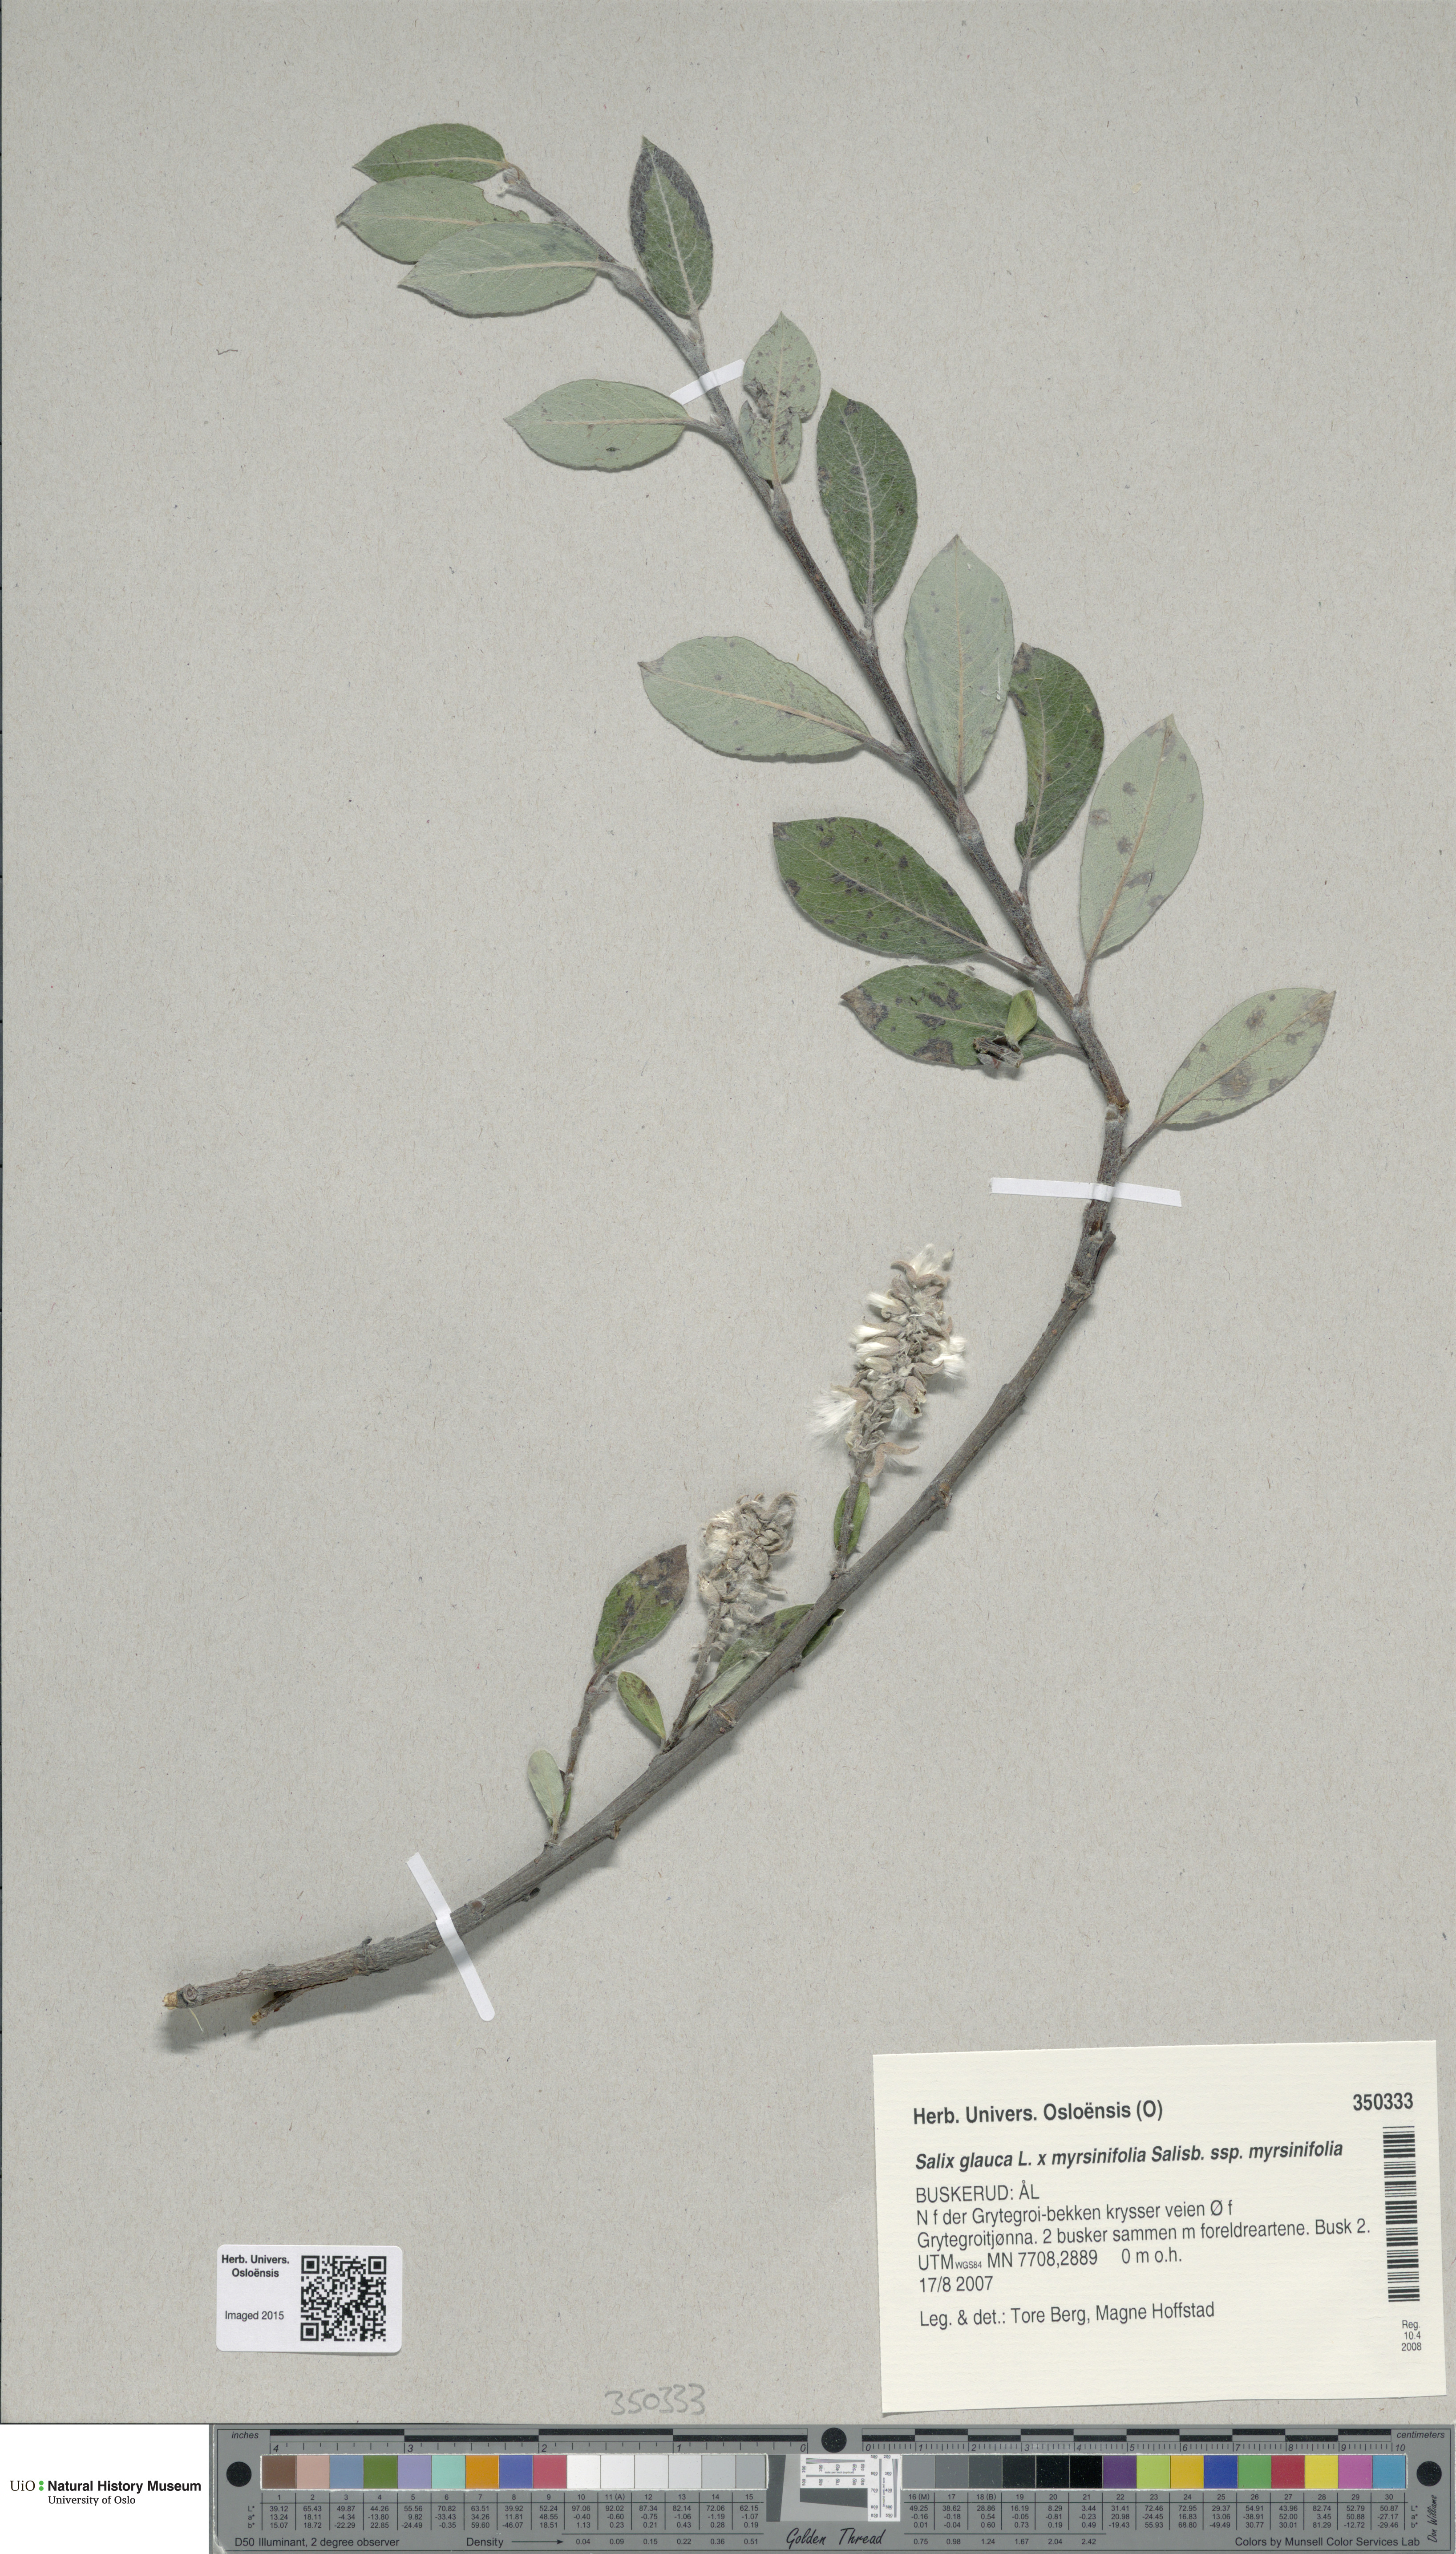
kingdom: Plantae
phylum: Tracheophyta
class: Magnoliopsida
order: Malpighiales
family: Salicaceae
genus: Salix
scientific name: Salix
